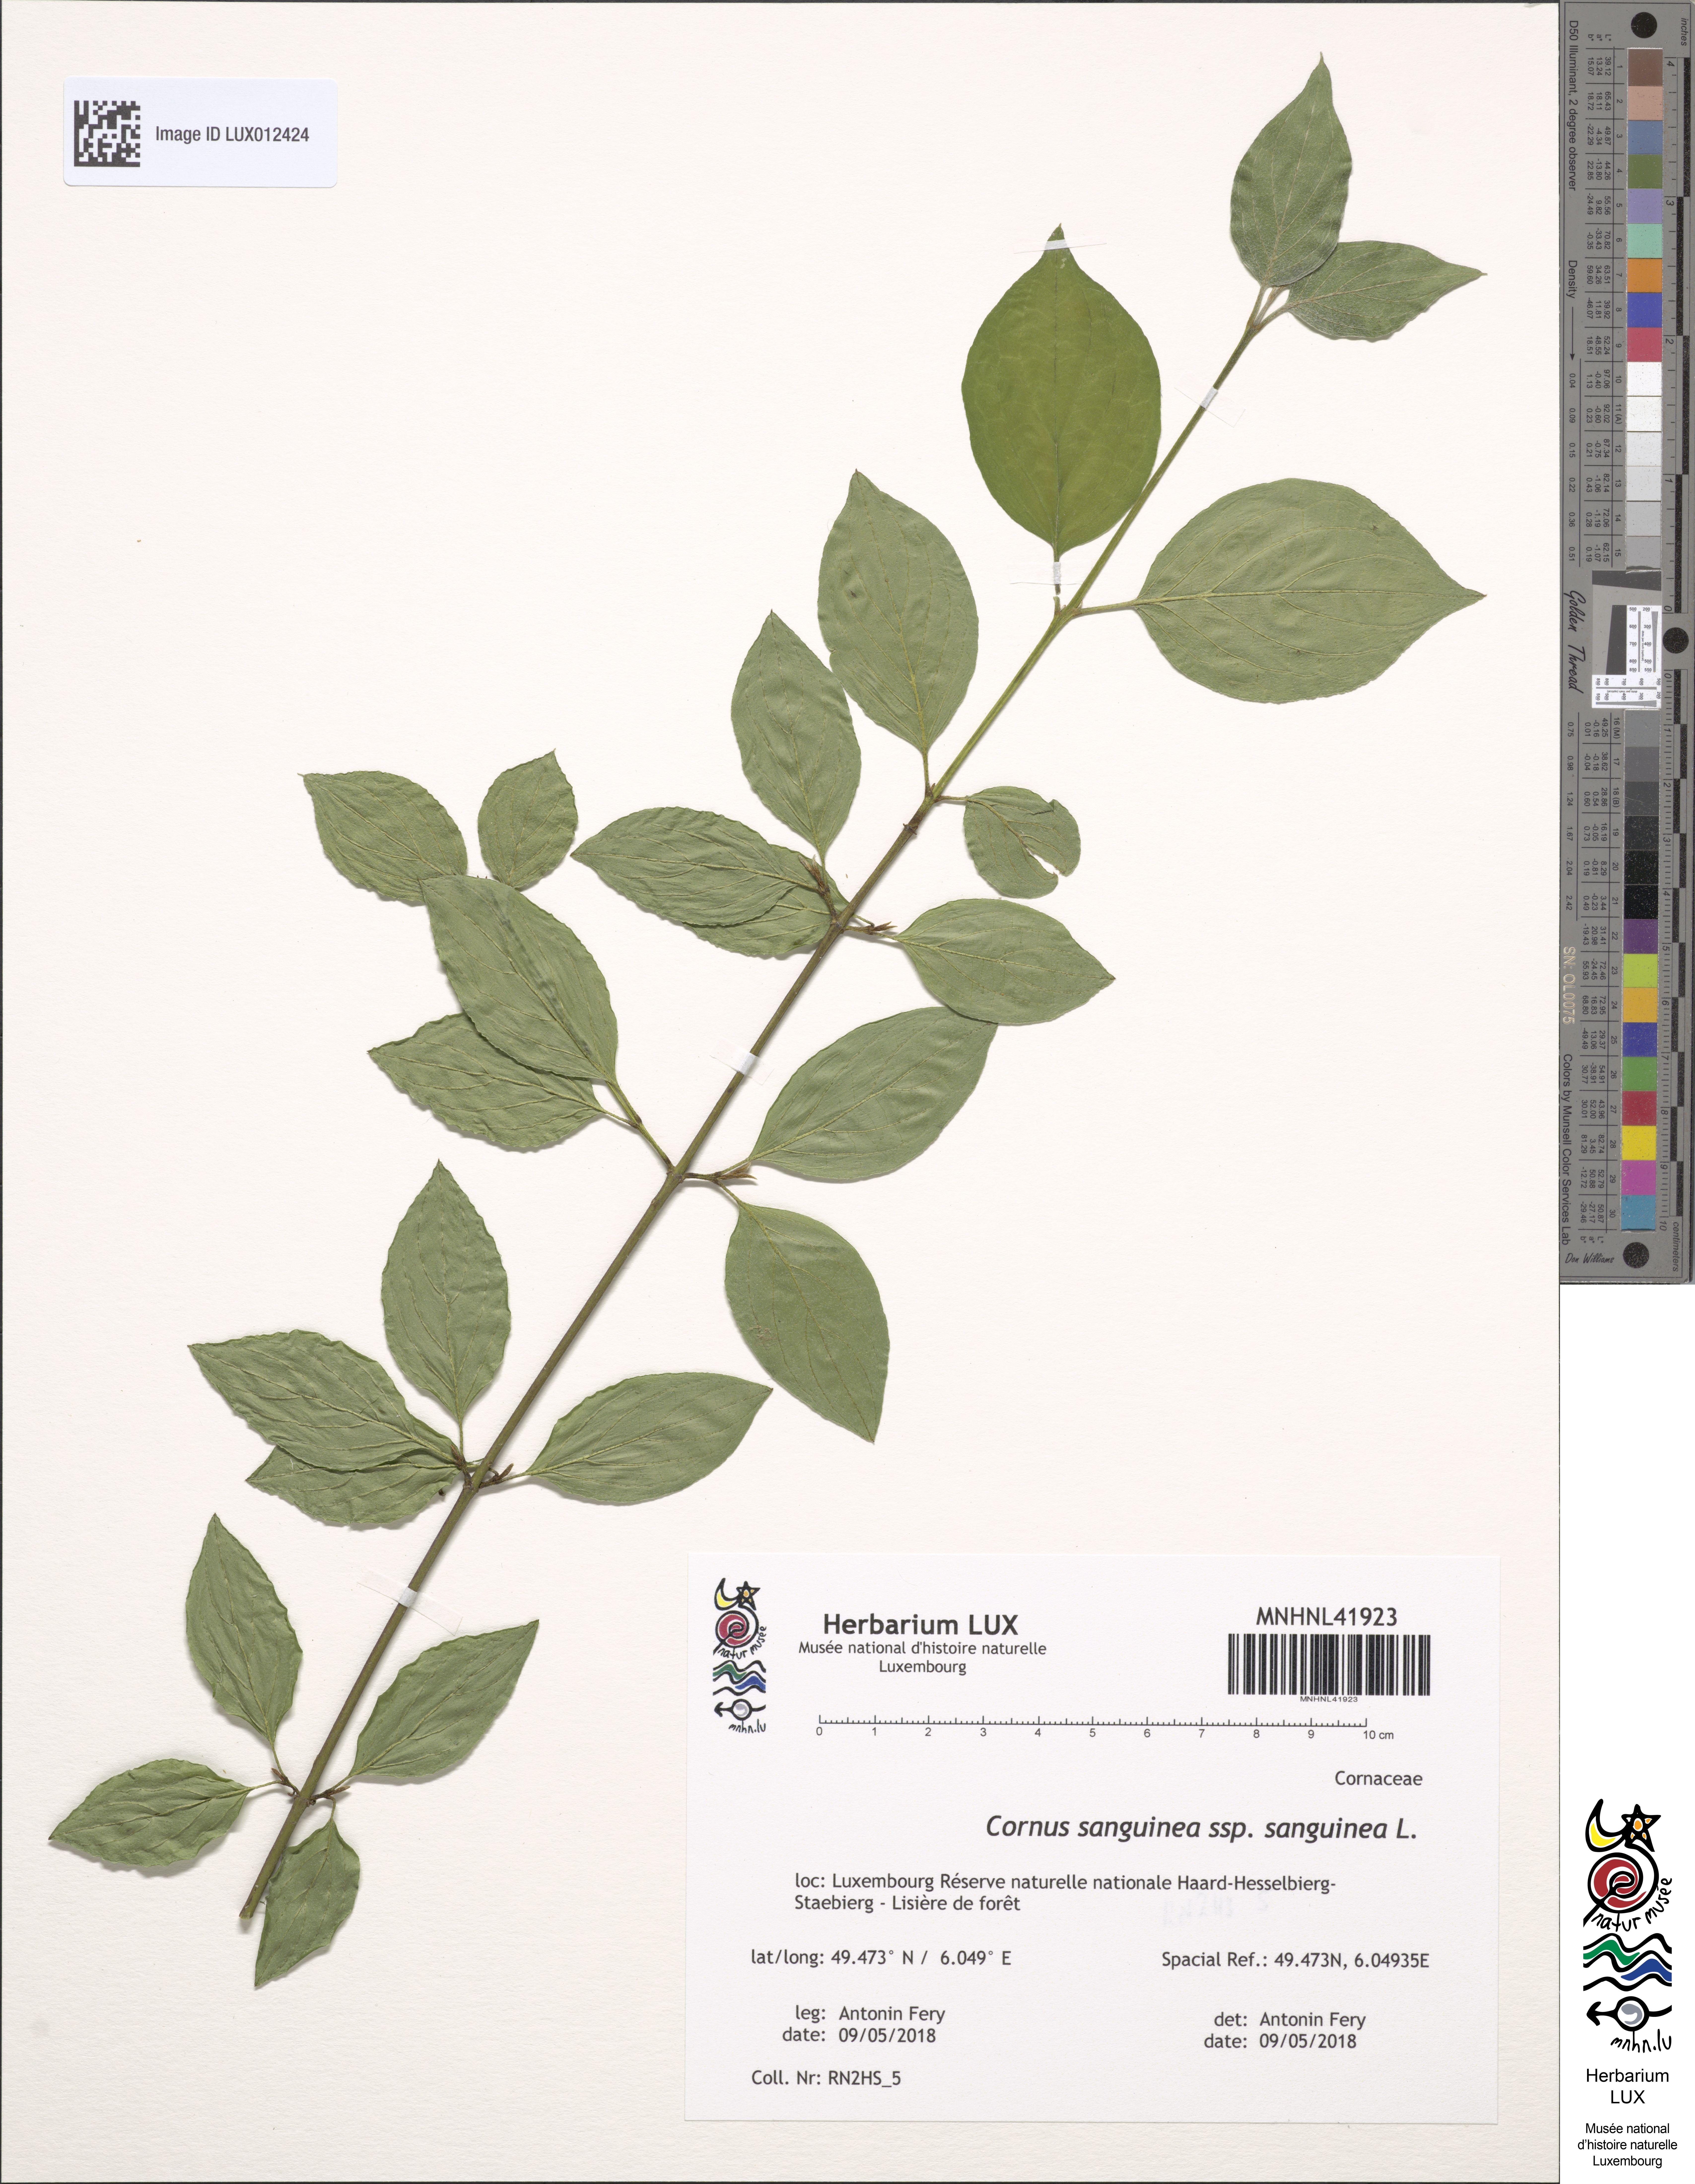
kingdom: Plantae
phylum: Tracheophyta
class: Magnoliopsida
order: Cornales
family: Cornaceae
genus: Cornus
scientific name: Cornus sanguinea
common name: Dogwood
